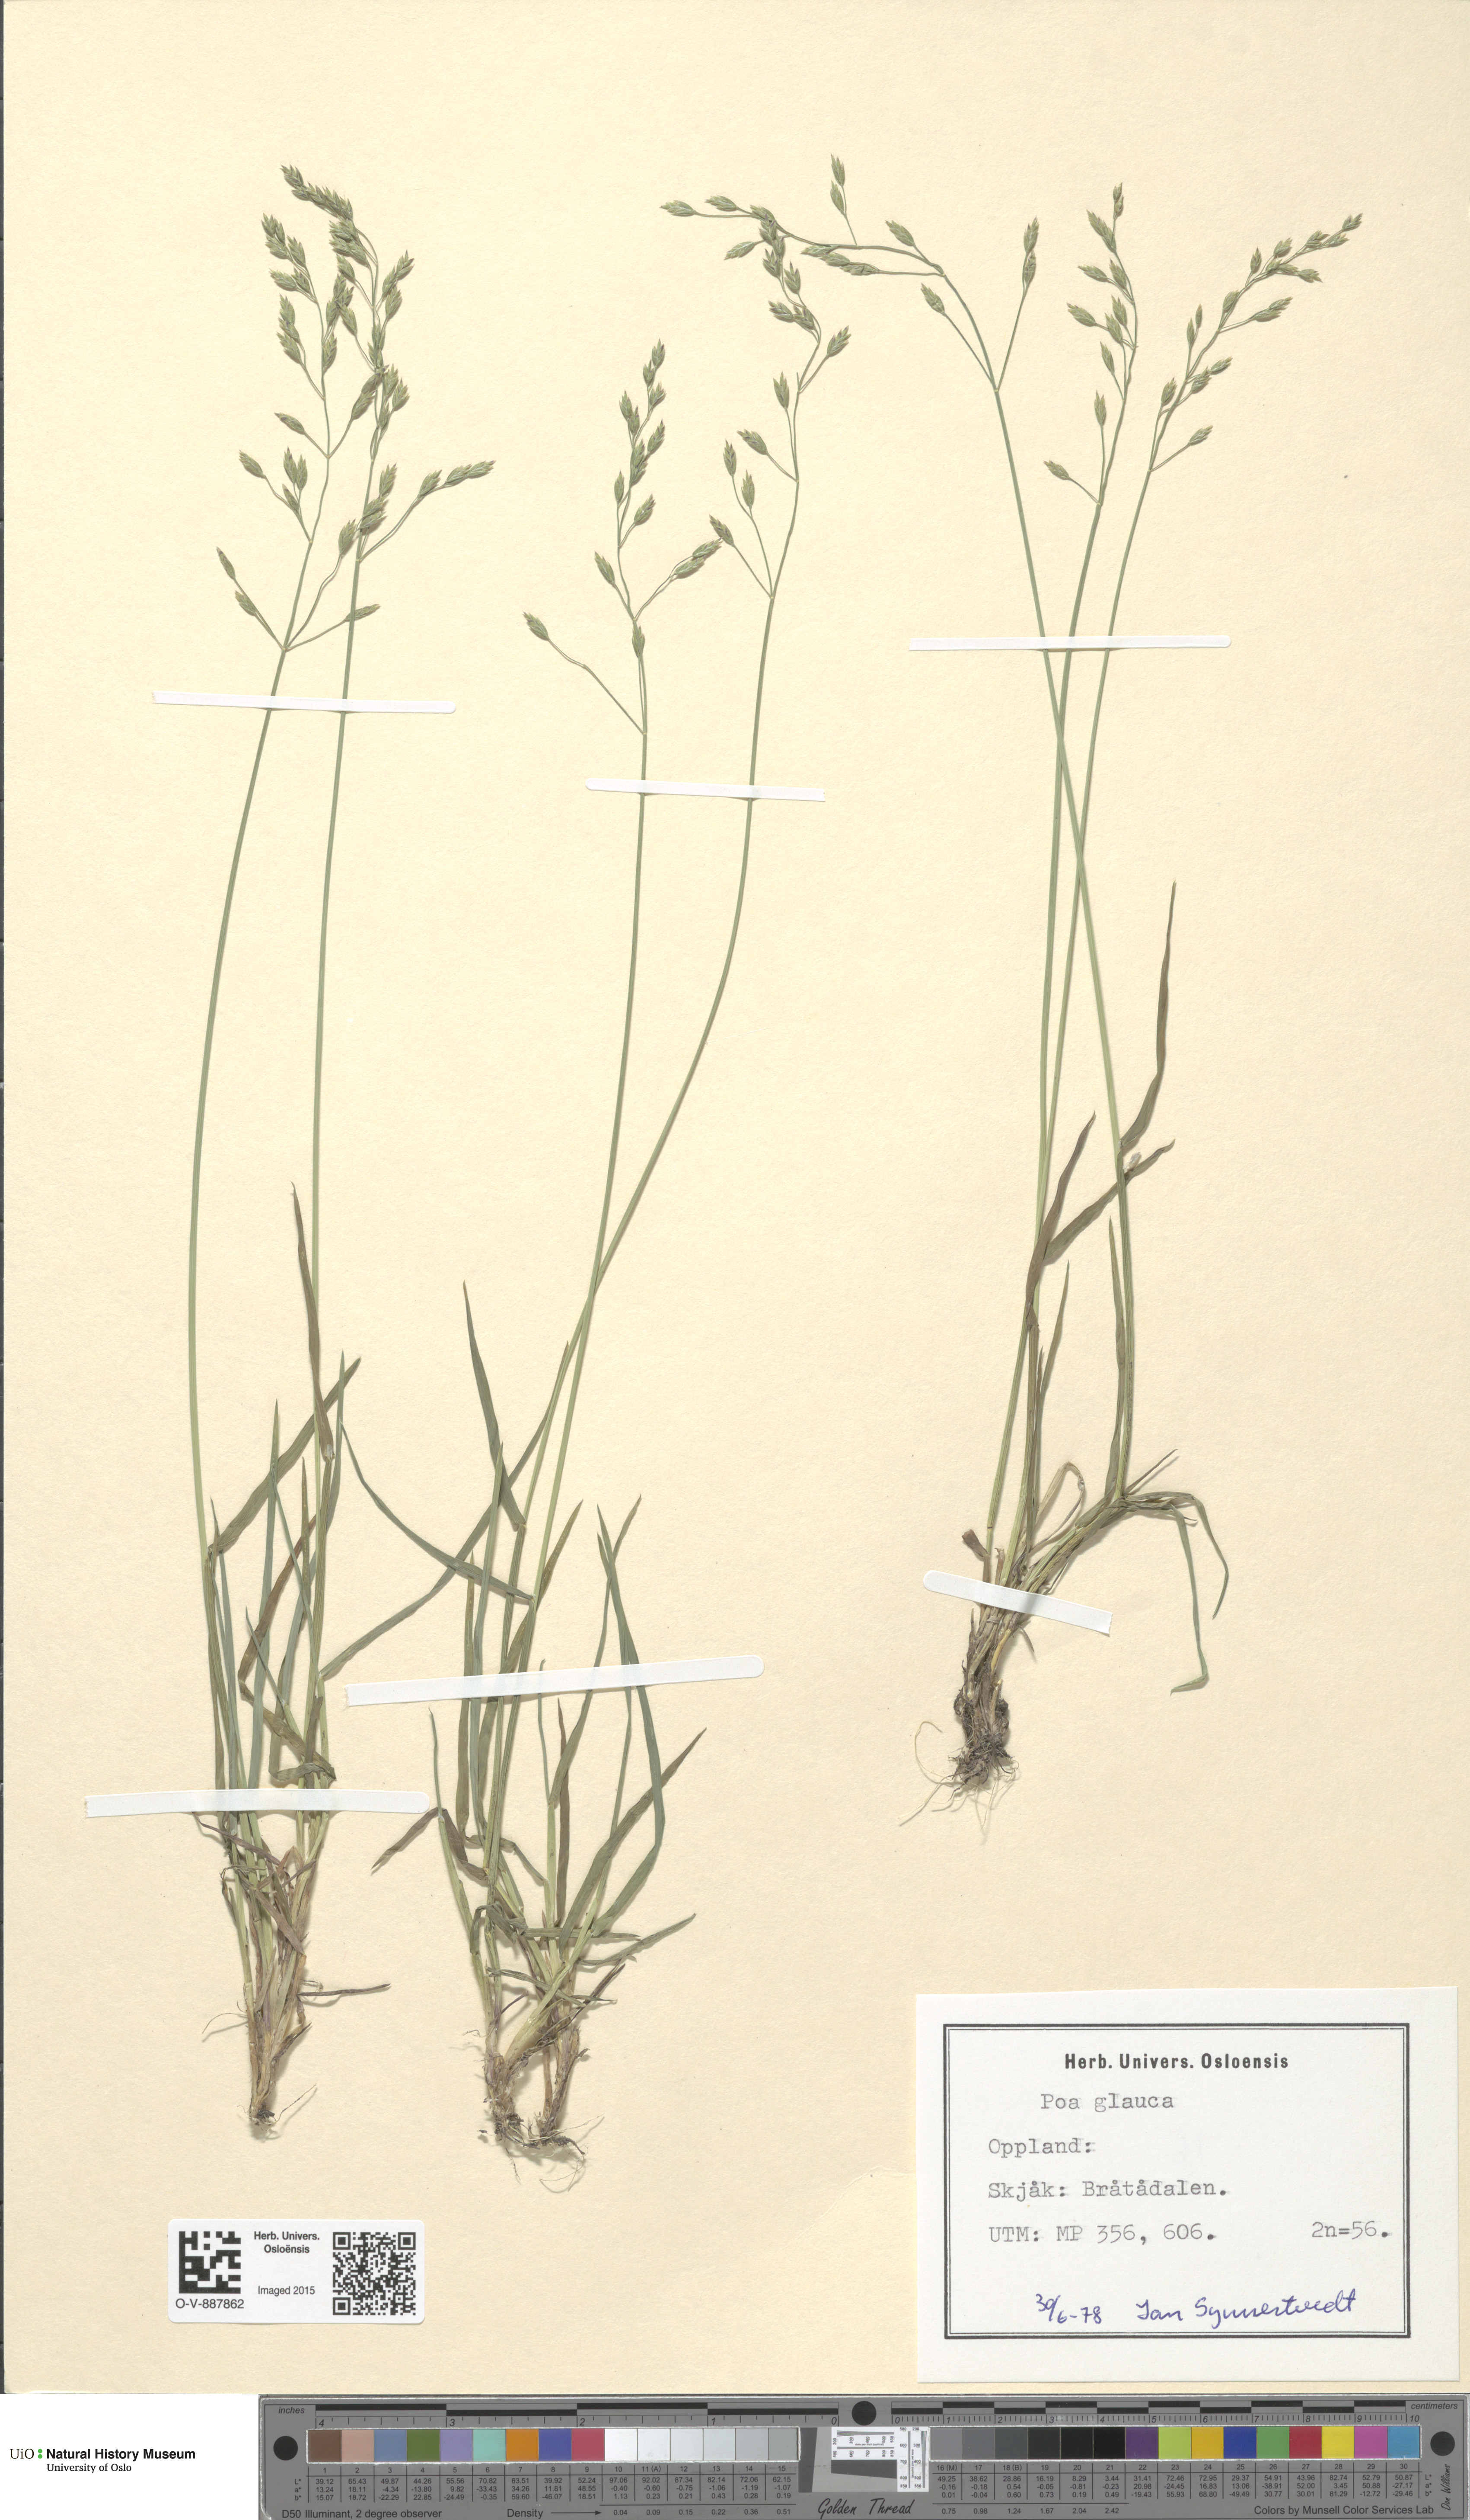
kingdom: Plantae
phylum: Tracheophyta
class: Liliopsida
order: Poales
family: Poaceae
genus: Poa
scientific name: Poa glauca
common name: Glaucous bluegrass
